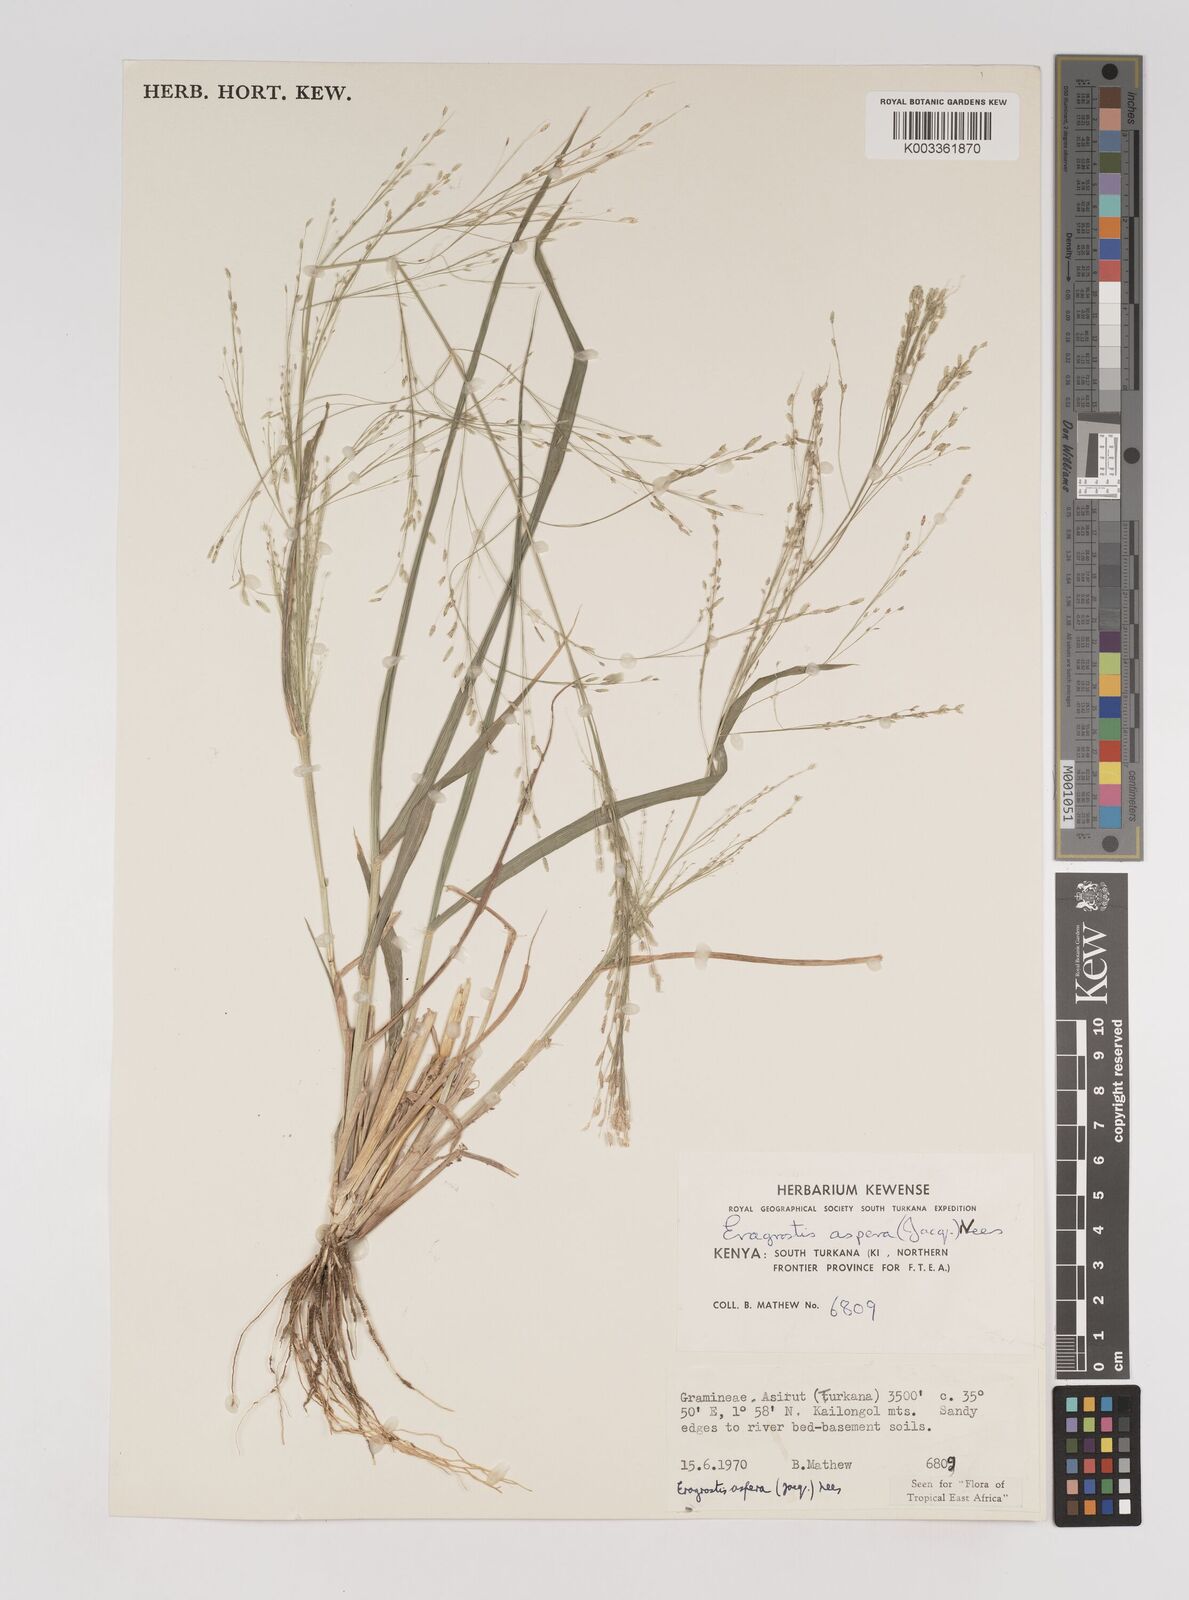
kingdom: Plantae
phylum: Tracheophyta
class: Liliopsida
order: Poales
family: Poaceae
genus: Eragrostis
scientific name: Eragrostis aspera
